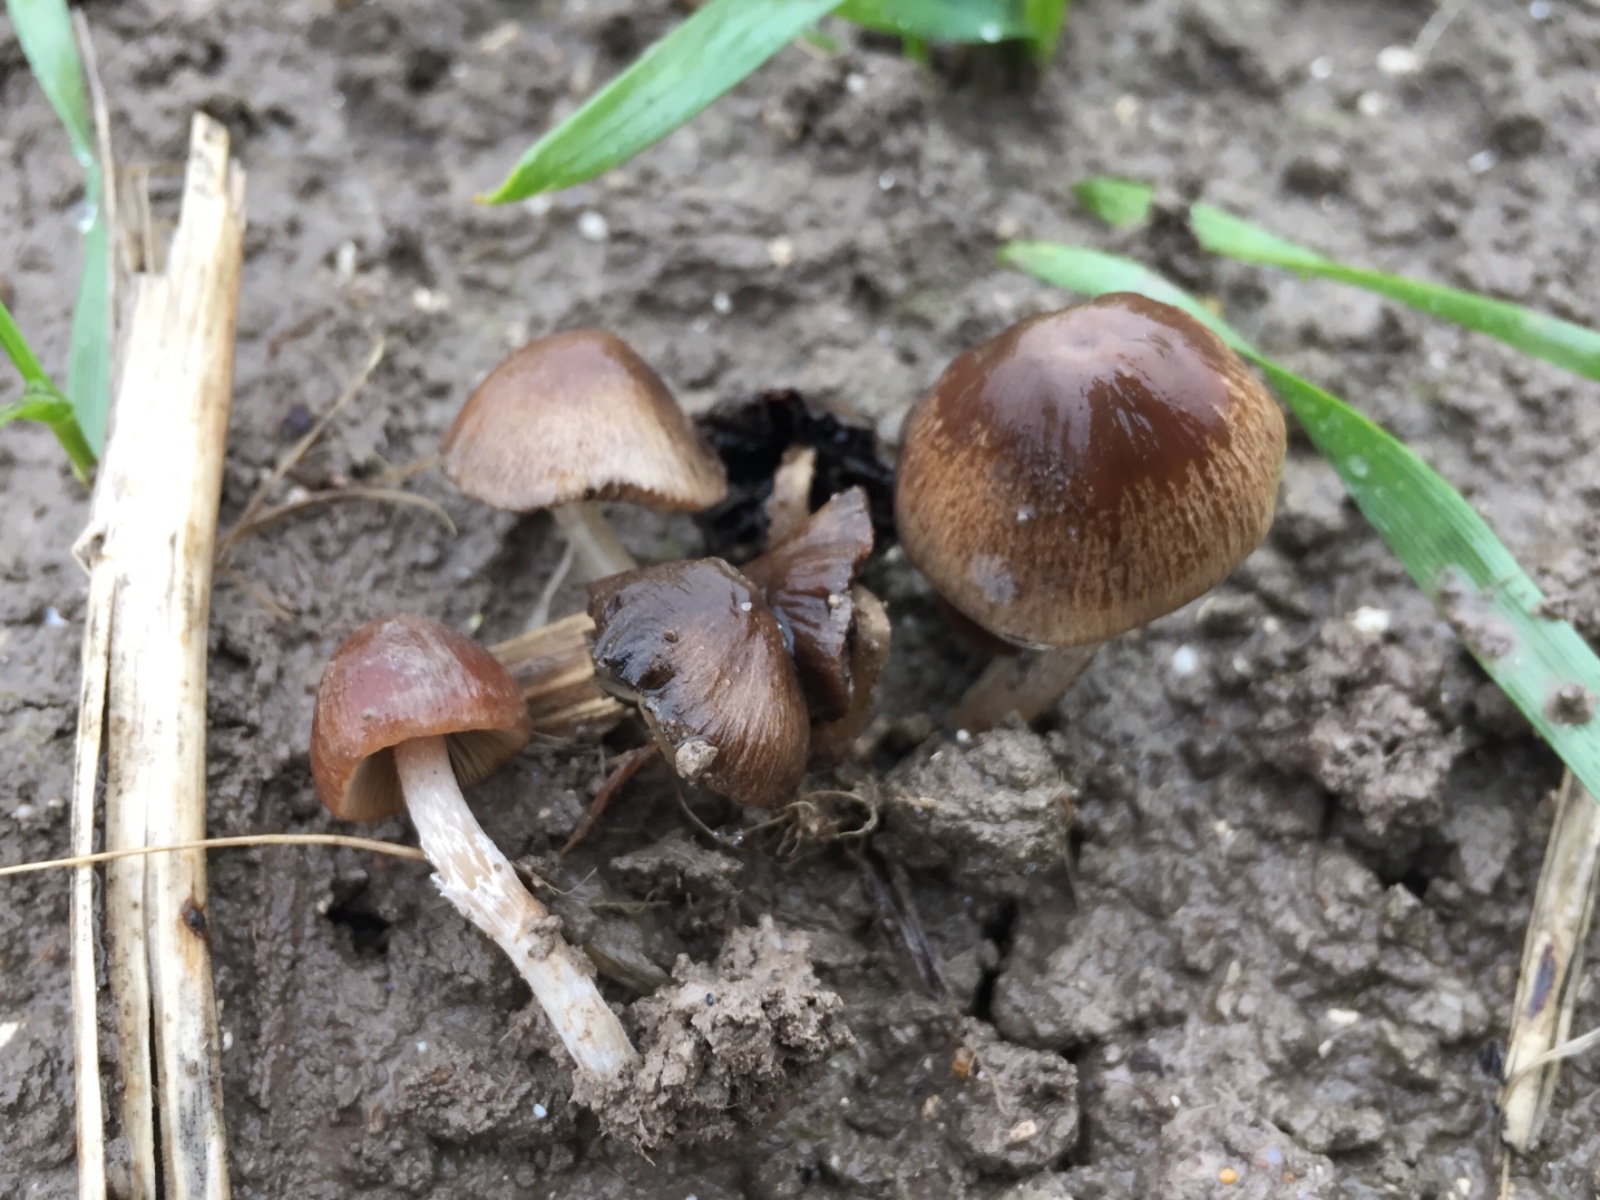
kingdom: Fungi
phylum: Basidiomycota
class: Agaricomycetes
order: Agaricales
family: Psathyrellaceae
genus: Psathyrella
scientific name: Psathyrella
